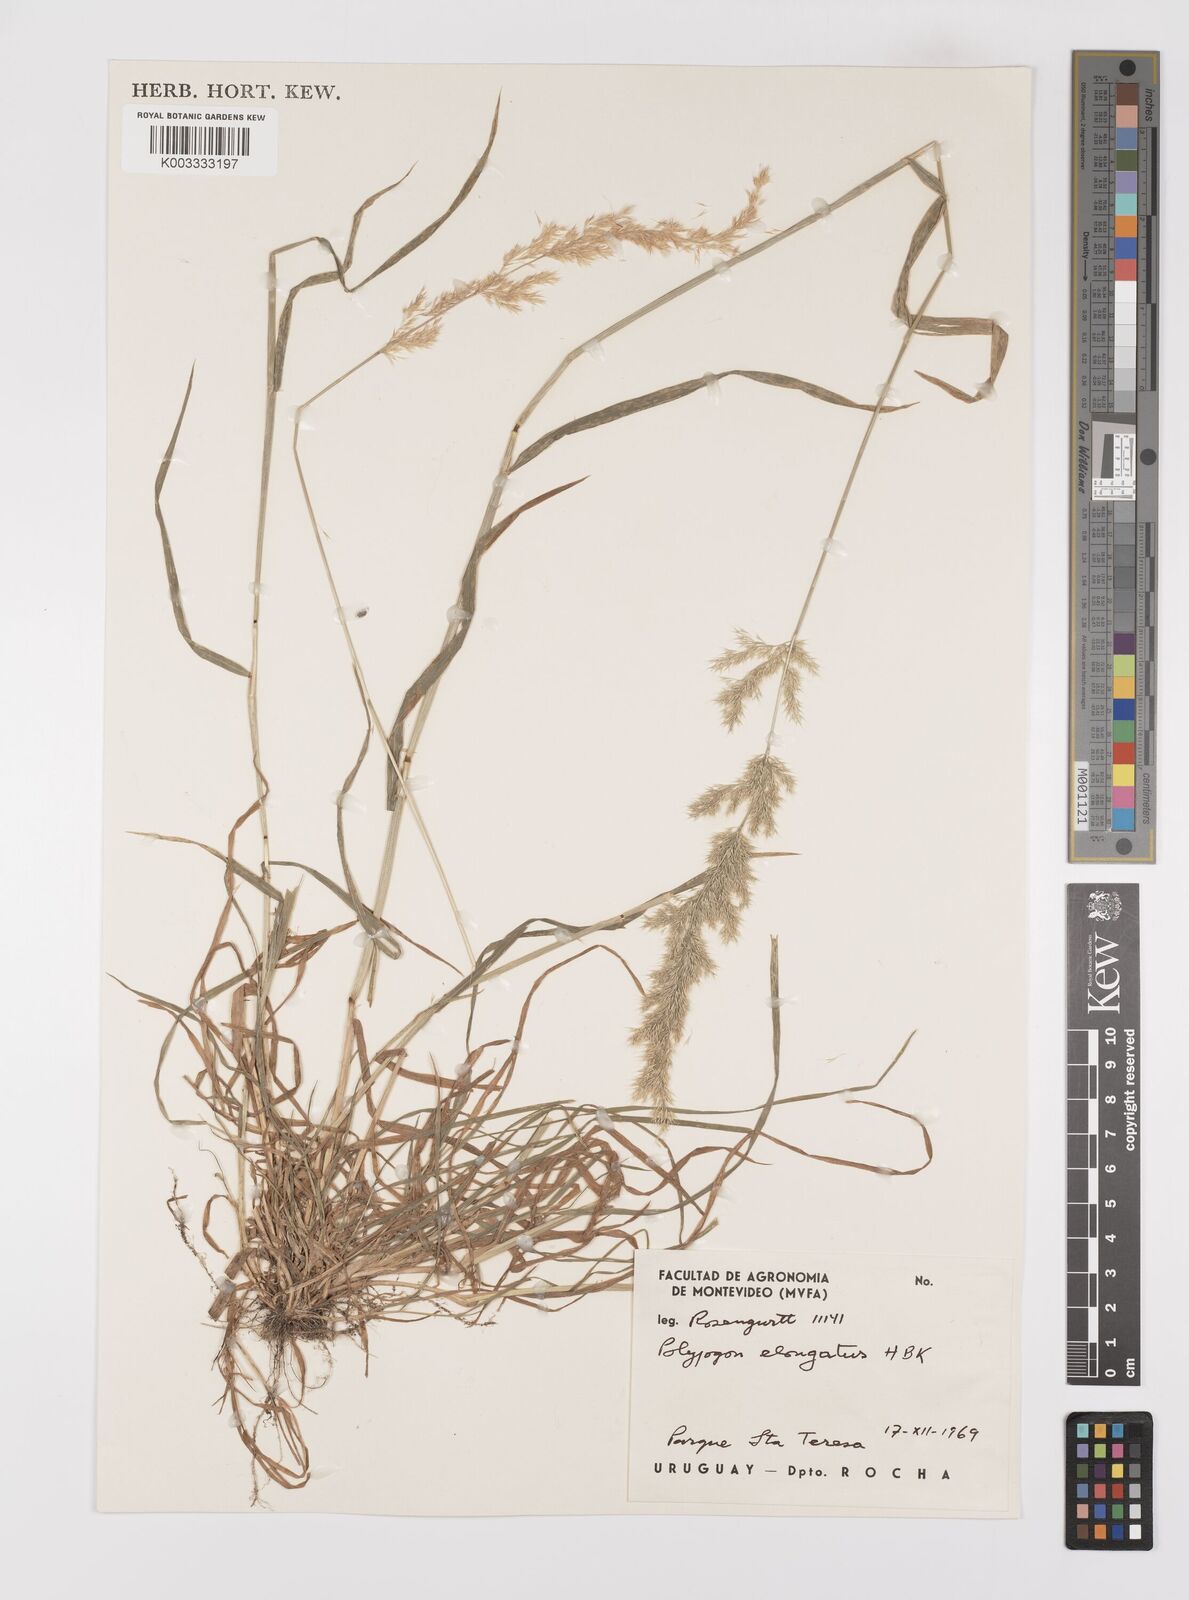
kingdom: Plantae
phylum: Tracheophyta
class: Liliopsida
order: Poales
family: Poaceae
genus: Polypogon
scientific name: Polypogon elongatus
